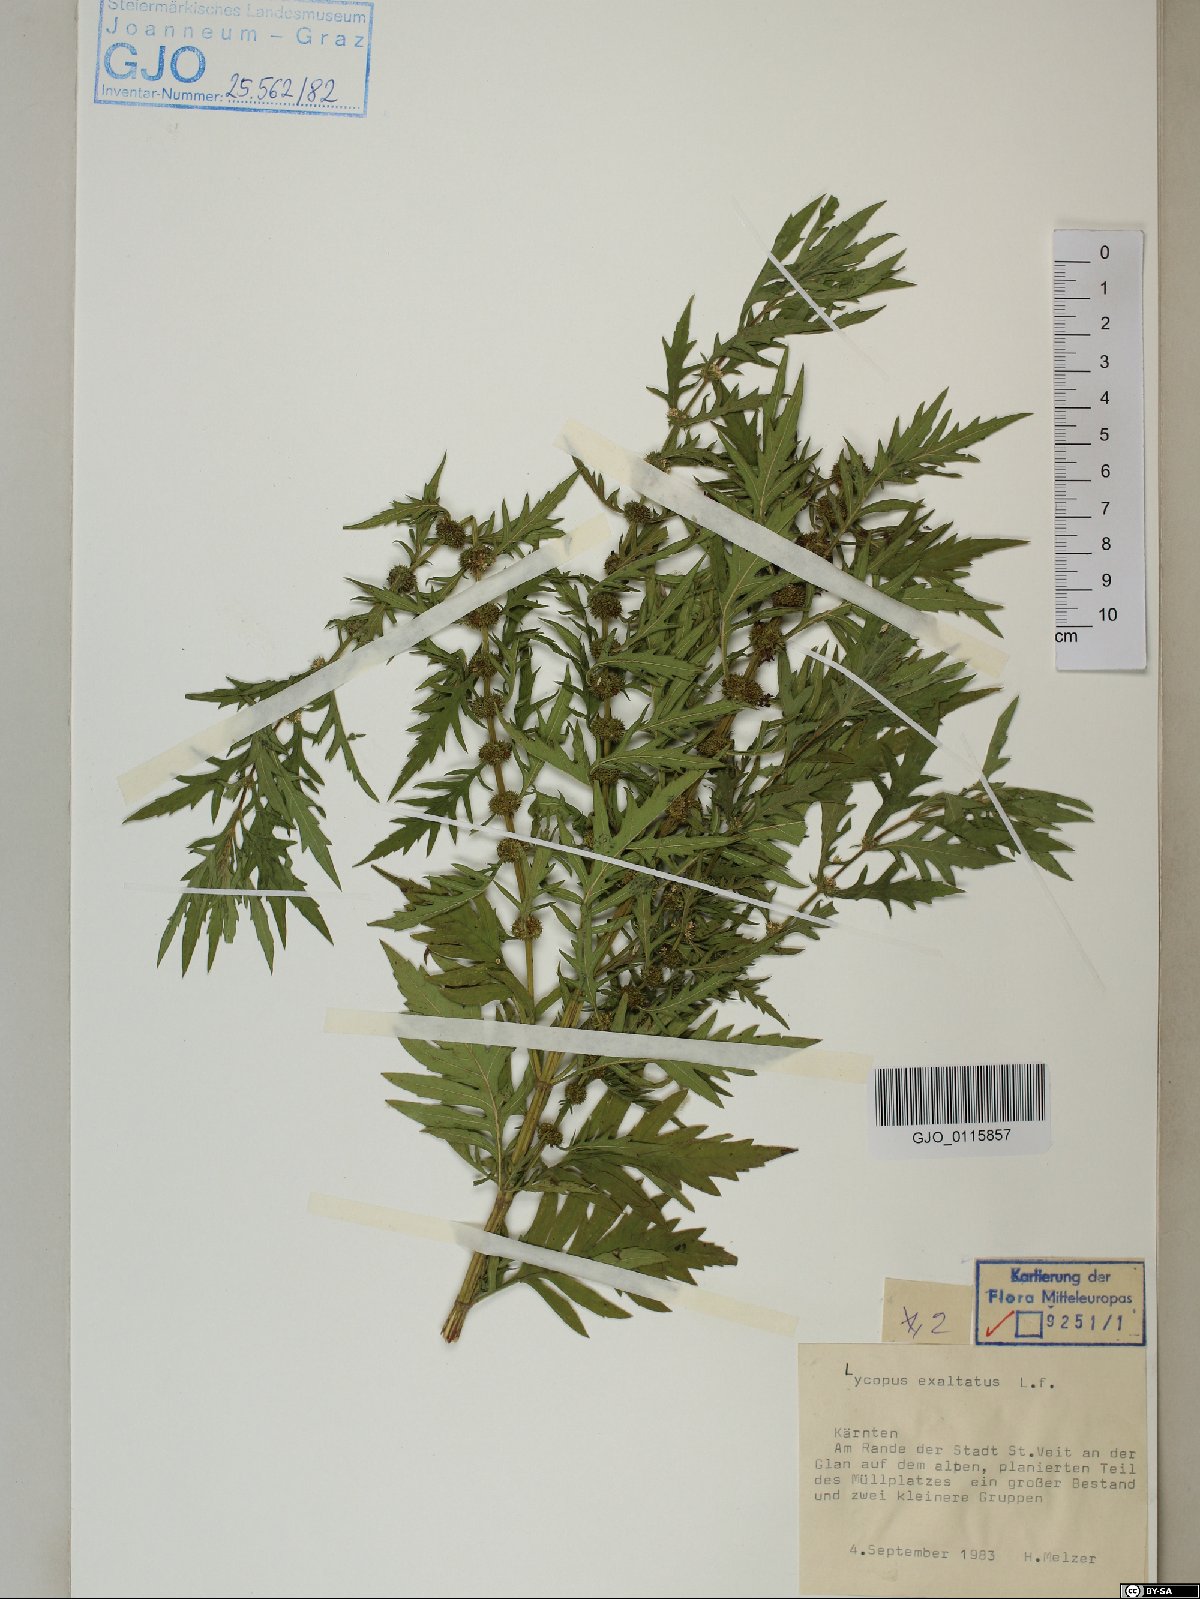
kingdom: Plantae
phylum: Tracheophyta
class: Magnoliopsida
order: Lamiales
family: Lamiaceae
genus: Lycopus
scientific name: Lycopus exaltatus
